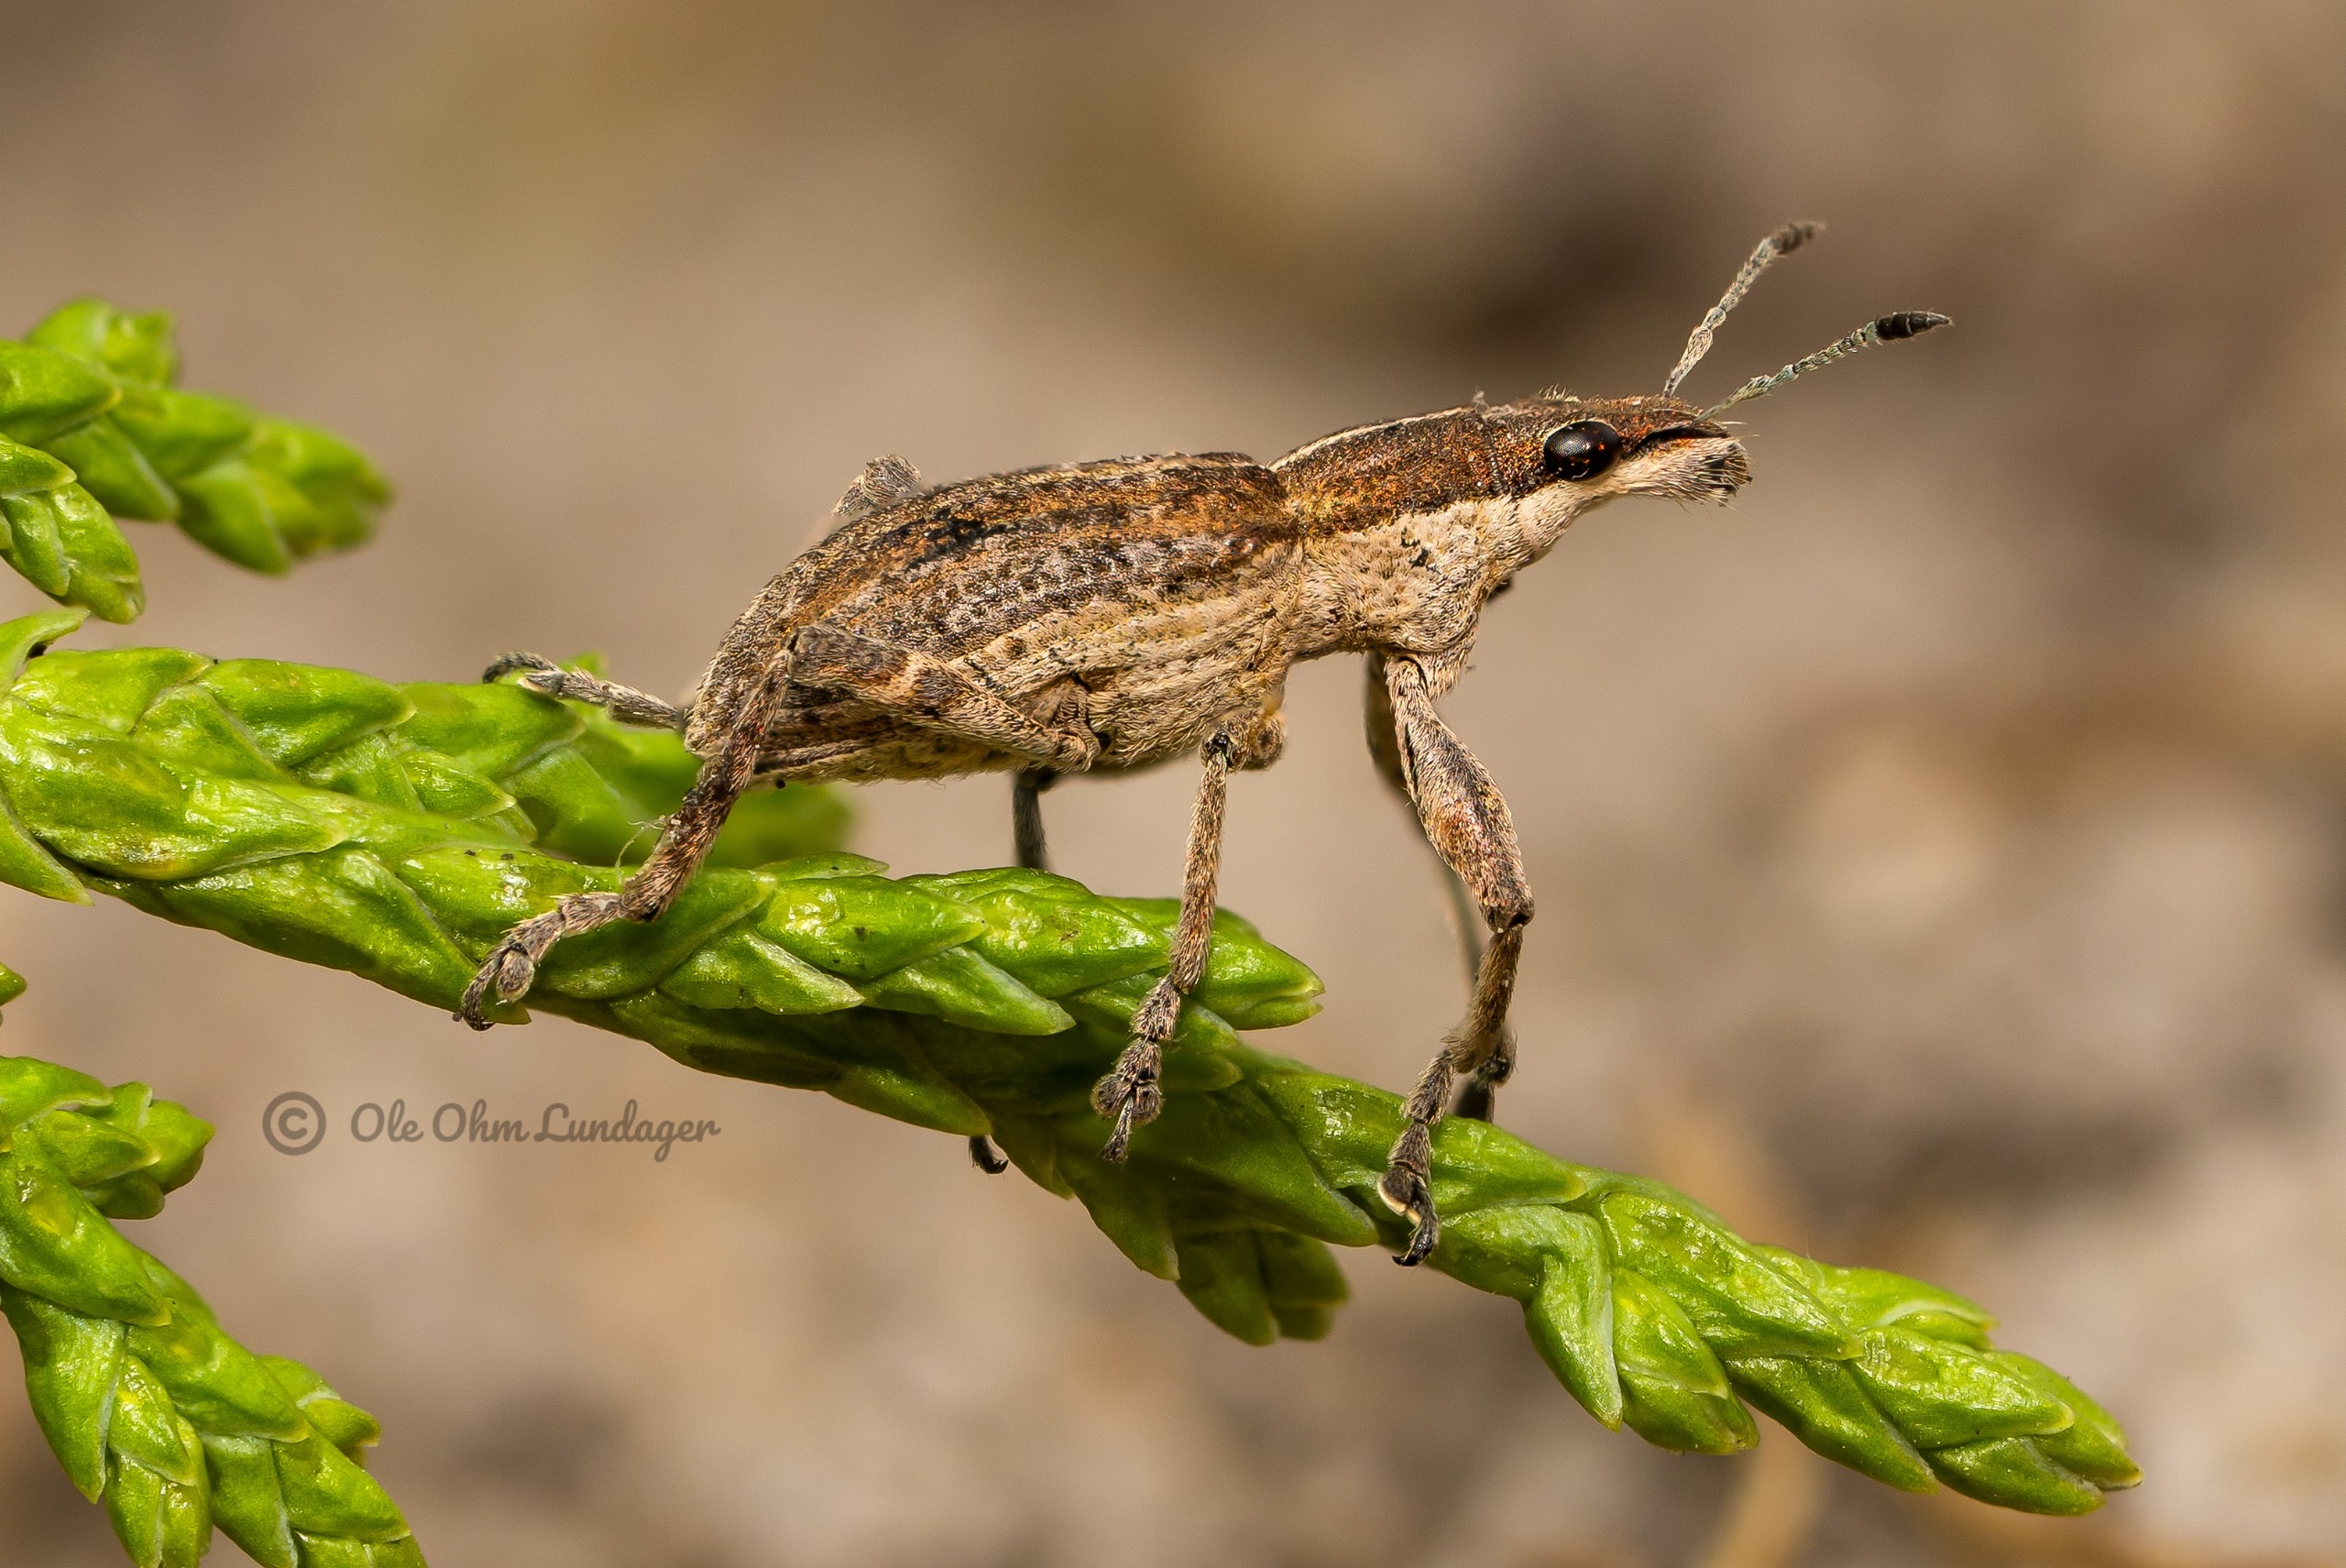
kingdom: Animalia
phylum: Arthropoda
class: Insecta
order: Coleoptera
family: Curculionidae
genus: Charagmus
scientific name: Charagmus gressorius
